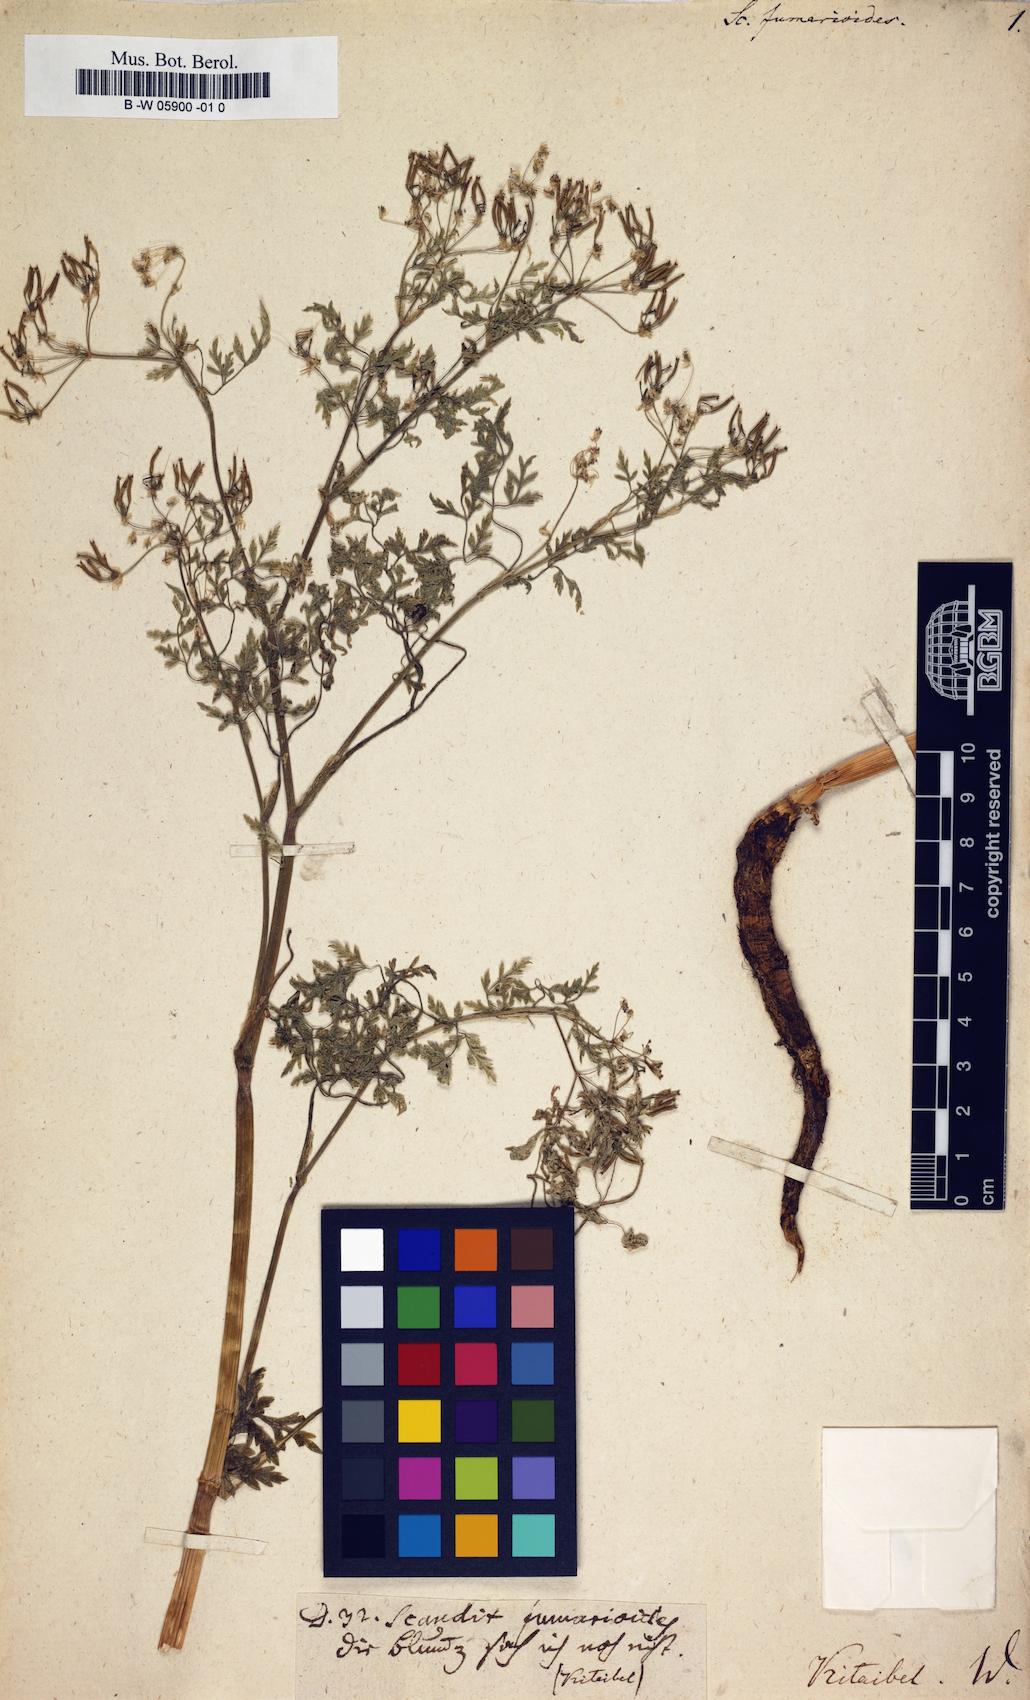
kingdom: Plantae
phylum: Tracheophyta
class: Magnoliopsida
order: Apiales
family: Apiaceae
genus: Anthriscus
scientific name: Anthriscus fumarioides
